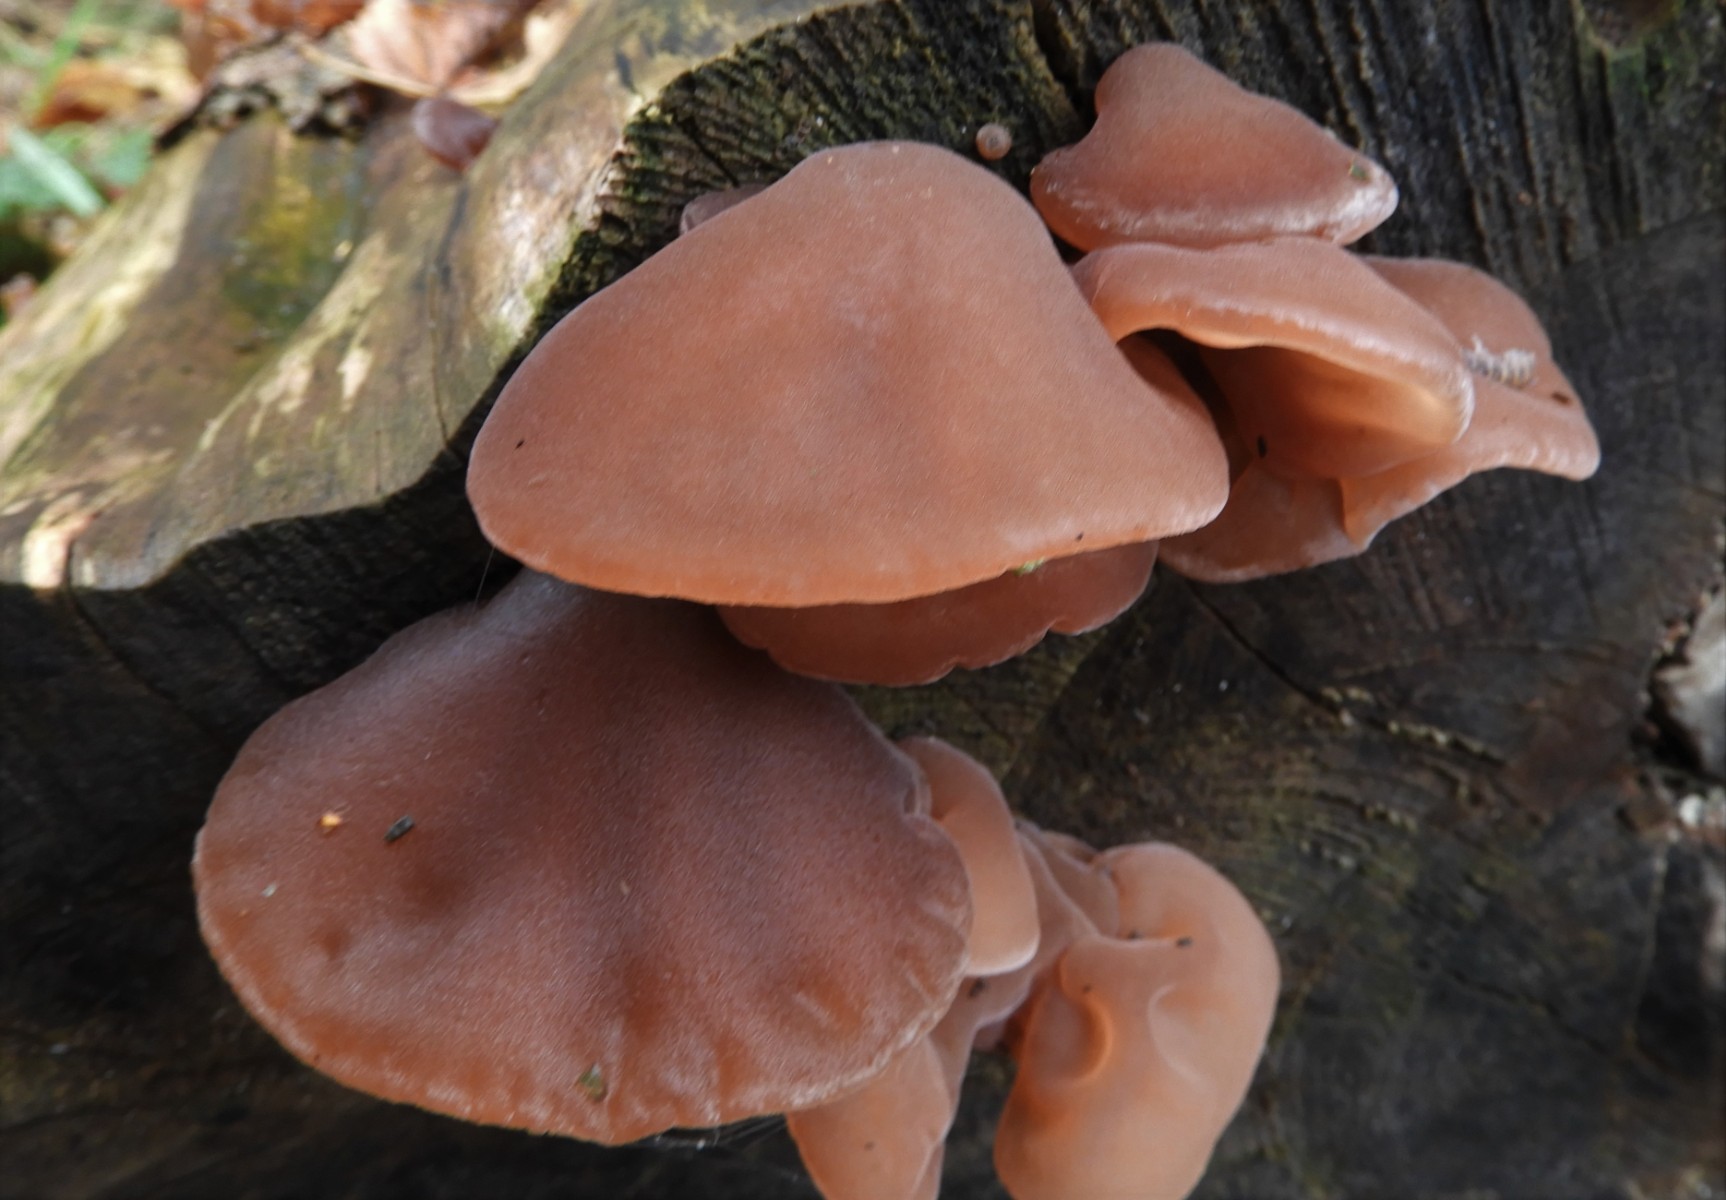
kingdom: Fungi
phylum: Basidiomycota
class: Agaricomycetes
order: Auriculariales
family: Auriculariaceae
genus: Auricularia
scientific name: Auricularia auricula-judae
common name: almindelig judasøre
